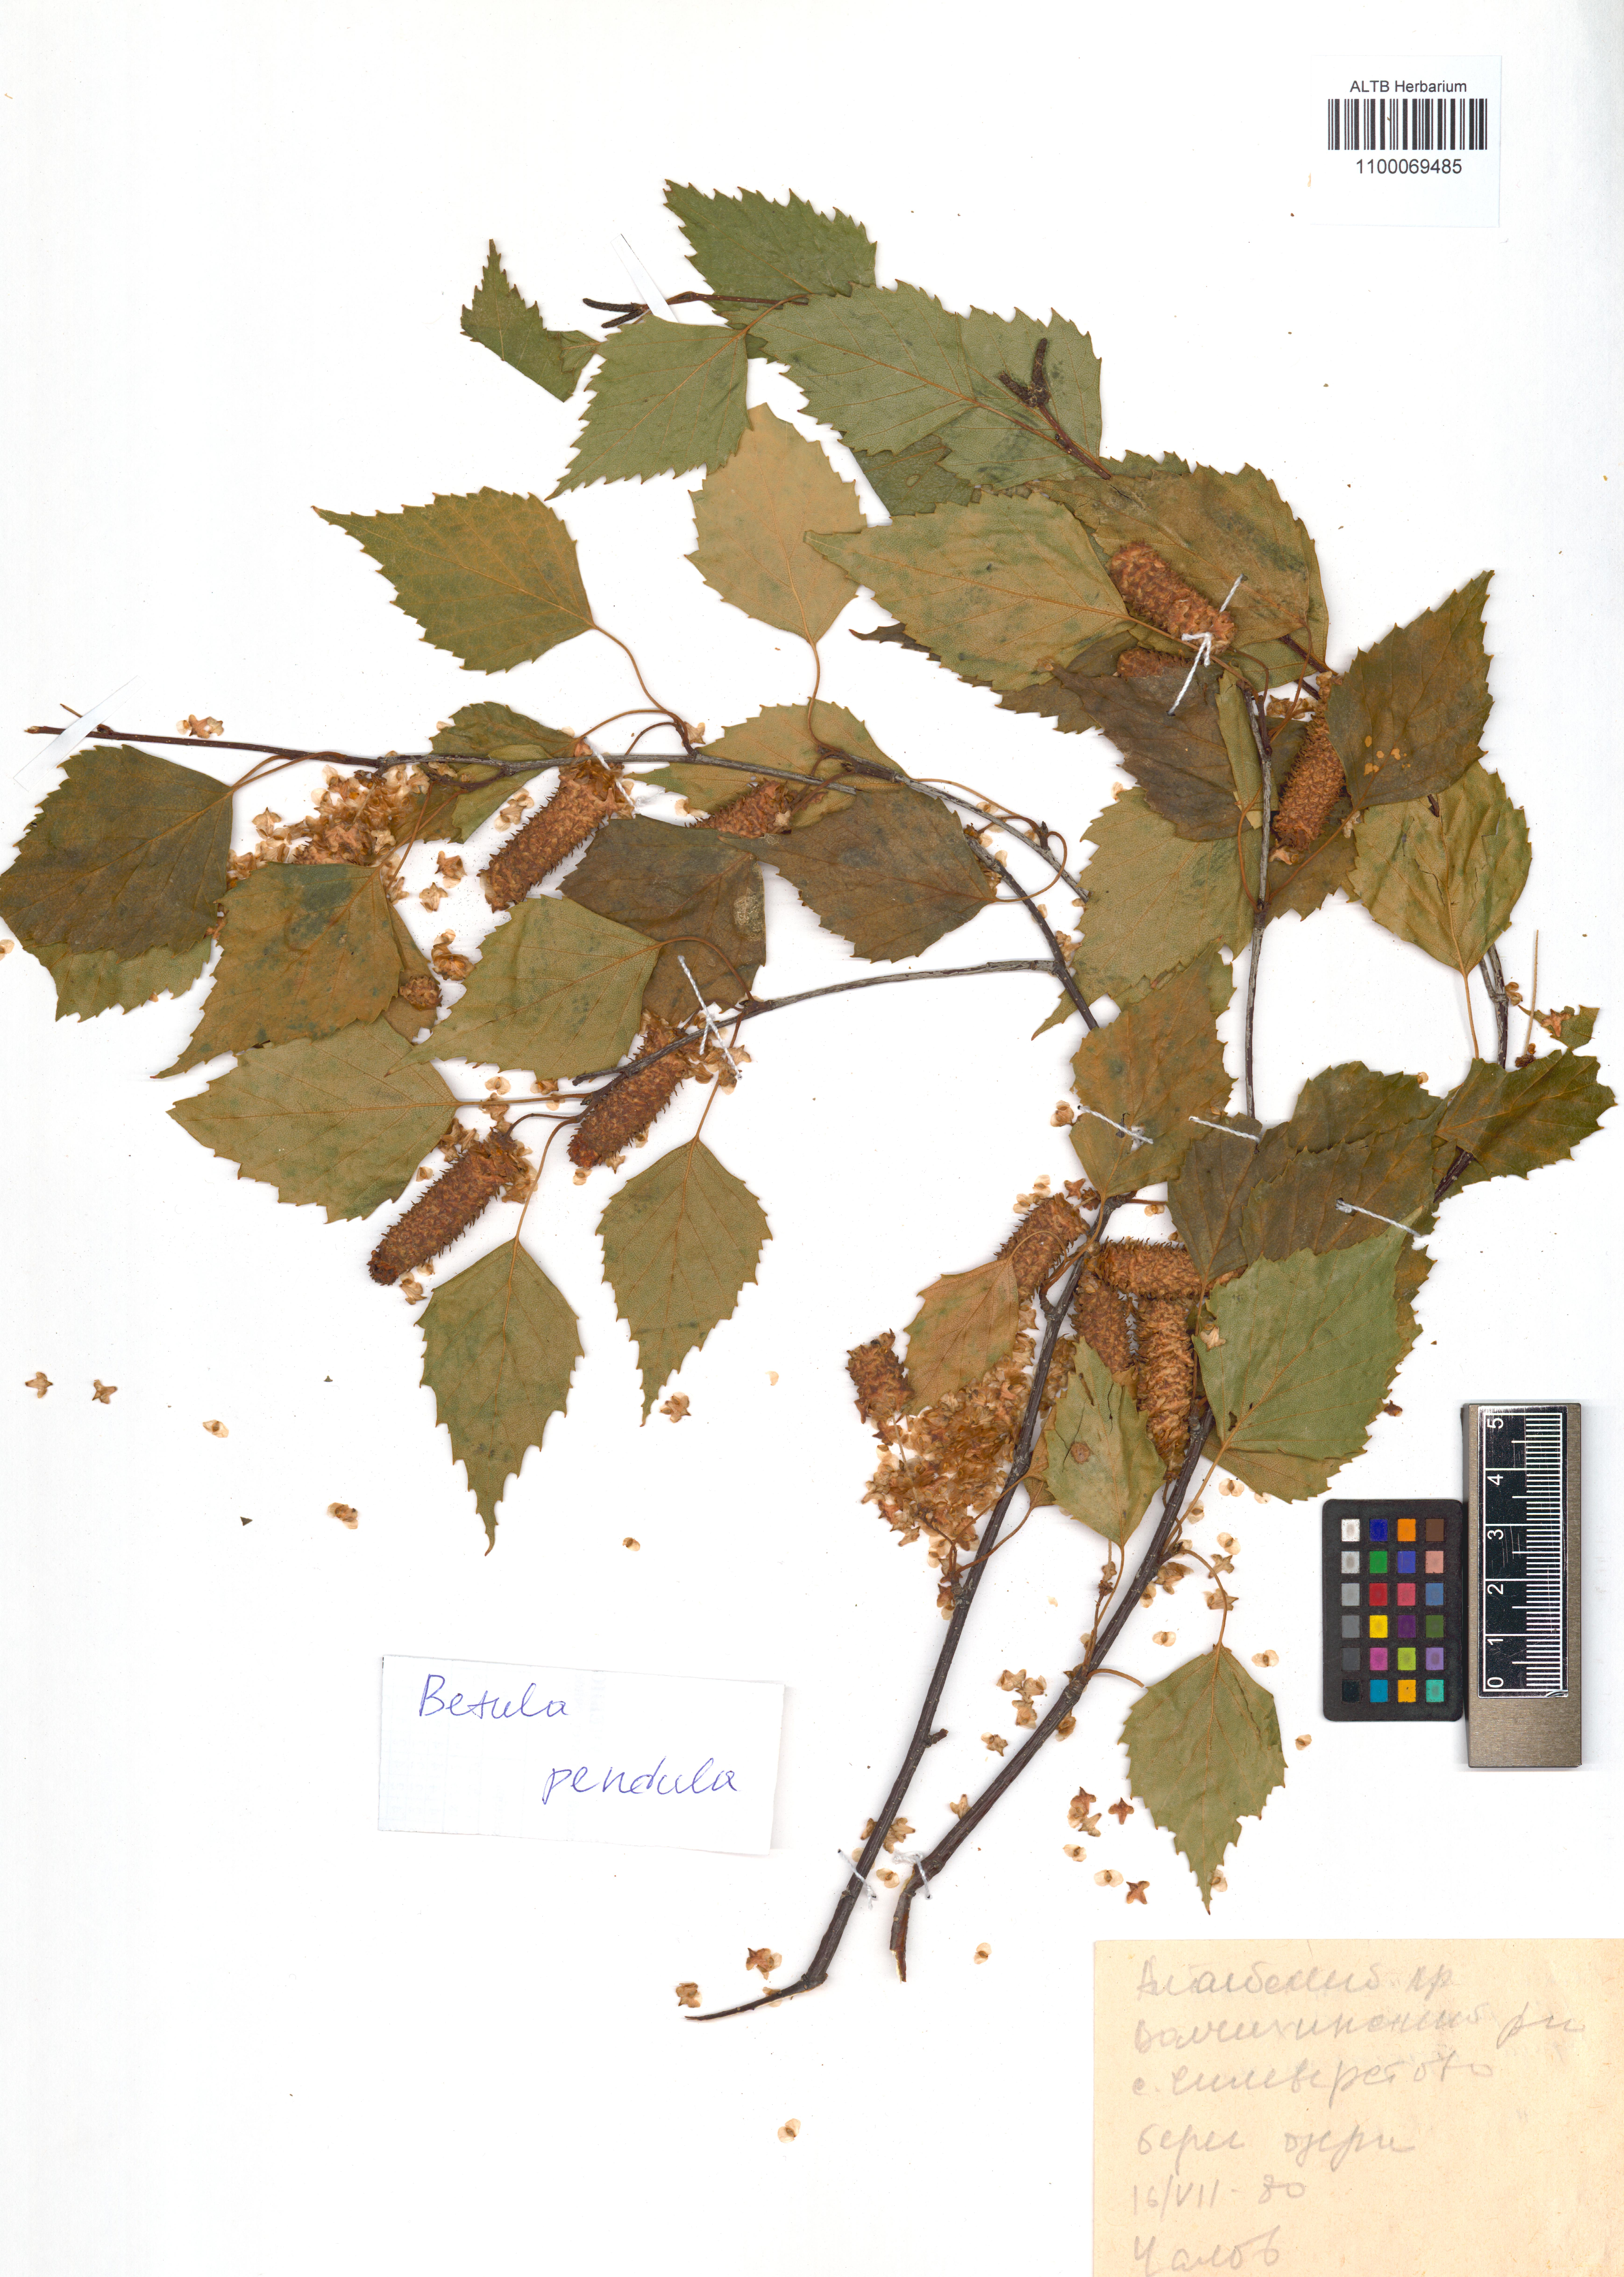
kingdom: Plantae
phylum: Tracheophyta
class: Magnoliopsida
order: Fagales
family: Betulaceae
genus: Betula
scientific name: Betula pendula
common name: Silver birch
